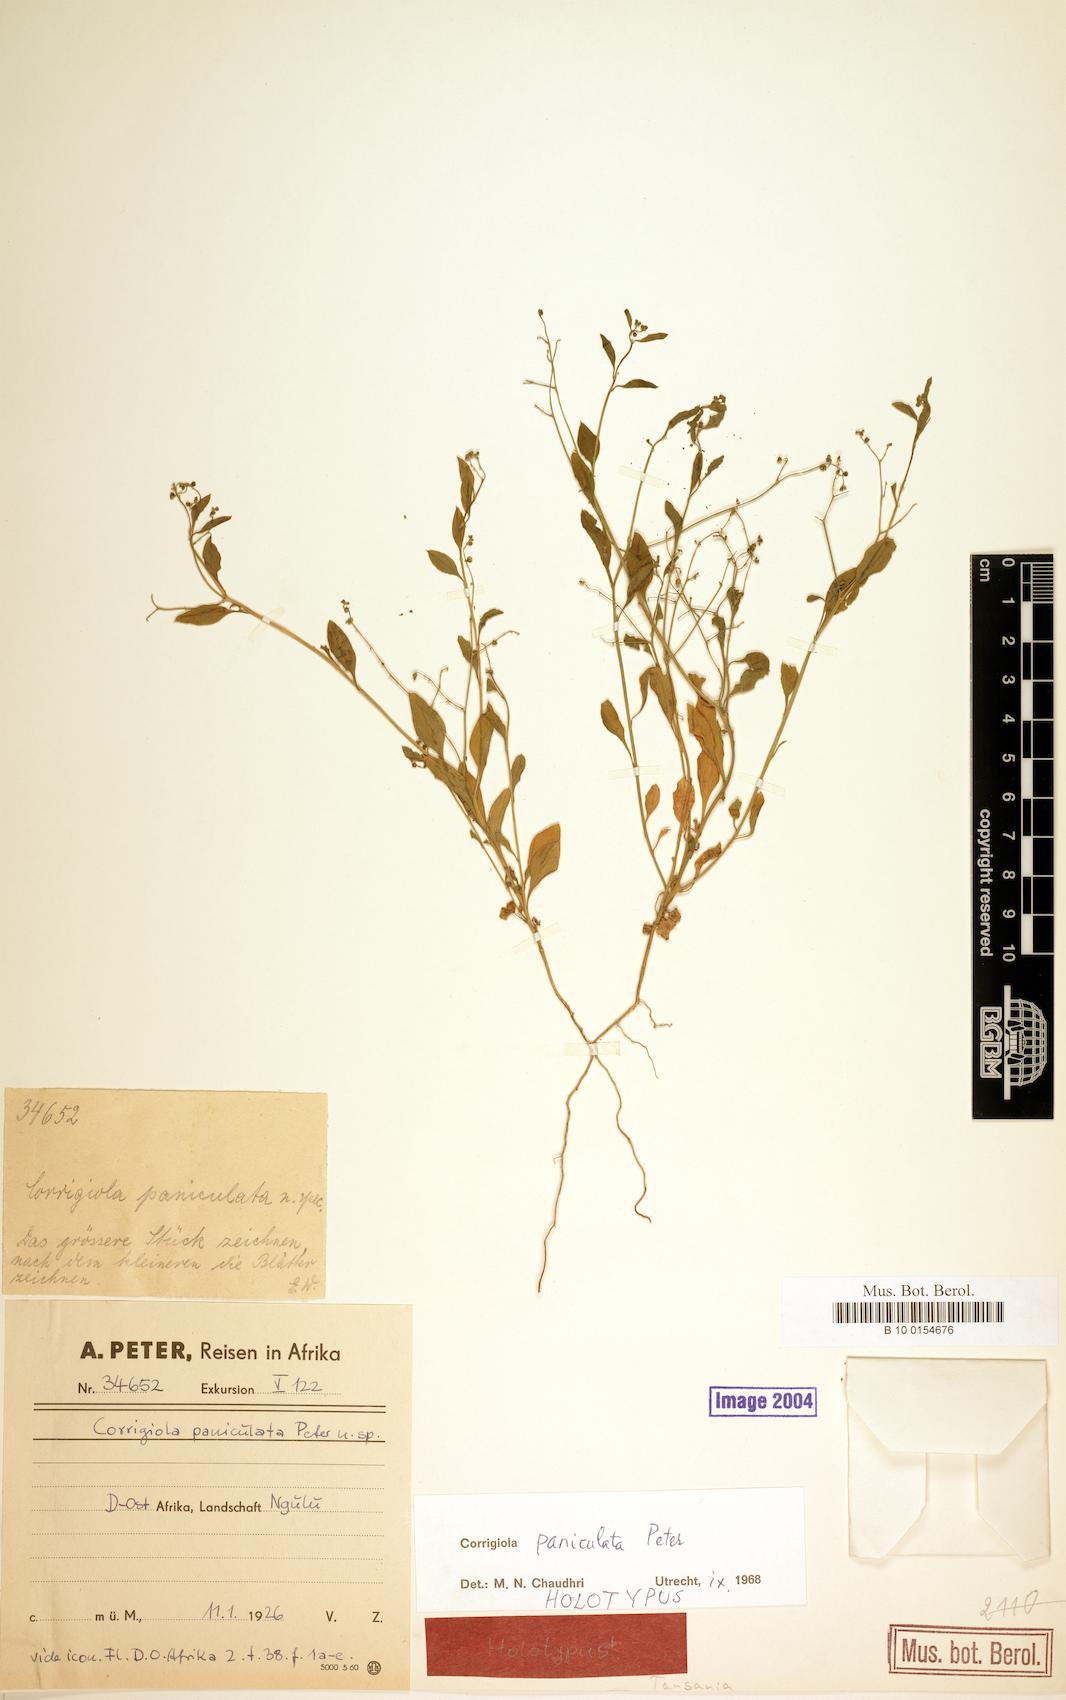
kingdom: Plantae
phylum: Tracheophyta
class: Magnoliopsida
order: Caryophyllales
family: Caryophyllaceae
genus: Corrigiola
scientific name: Corrigiola paniculata
